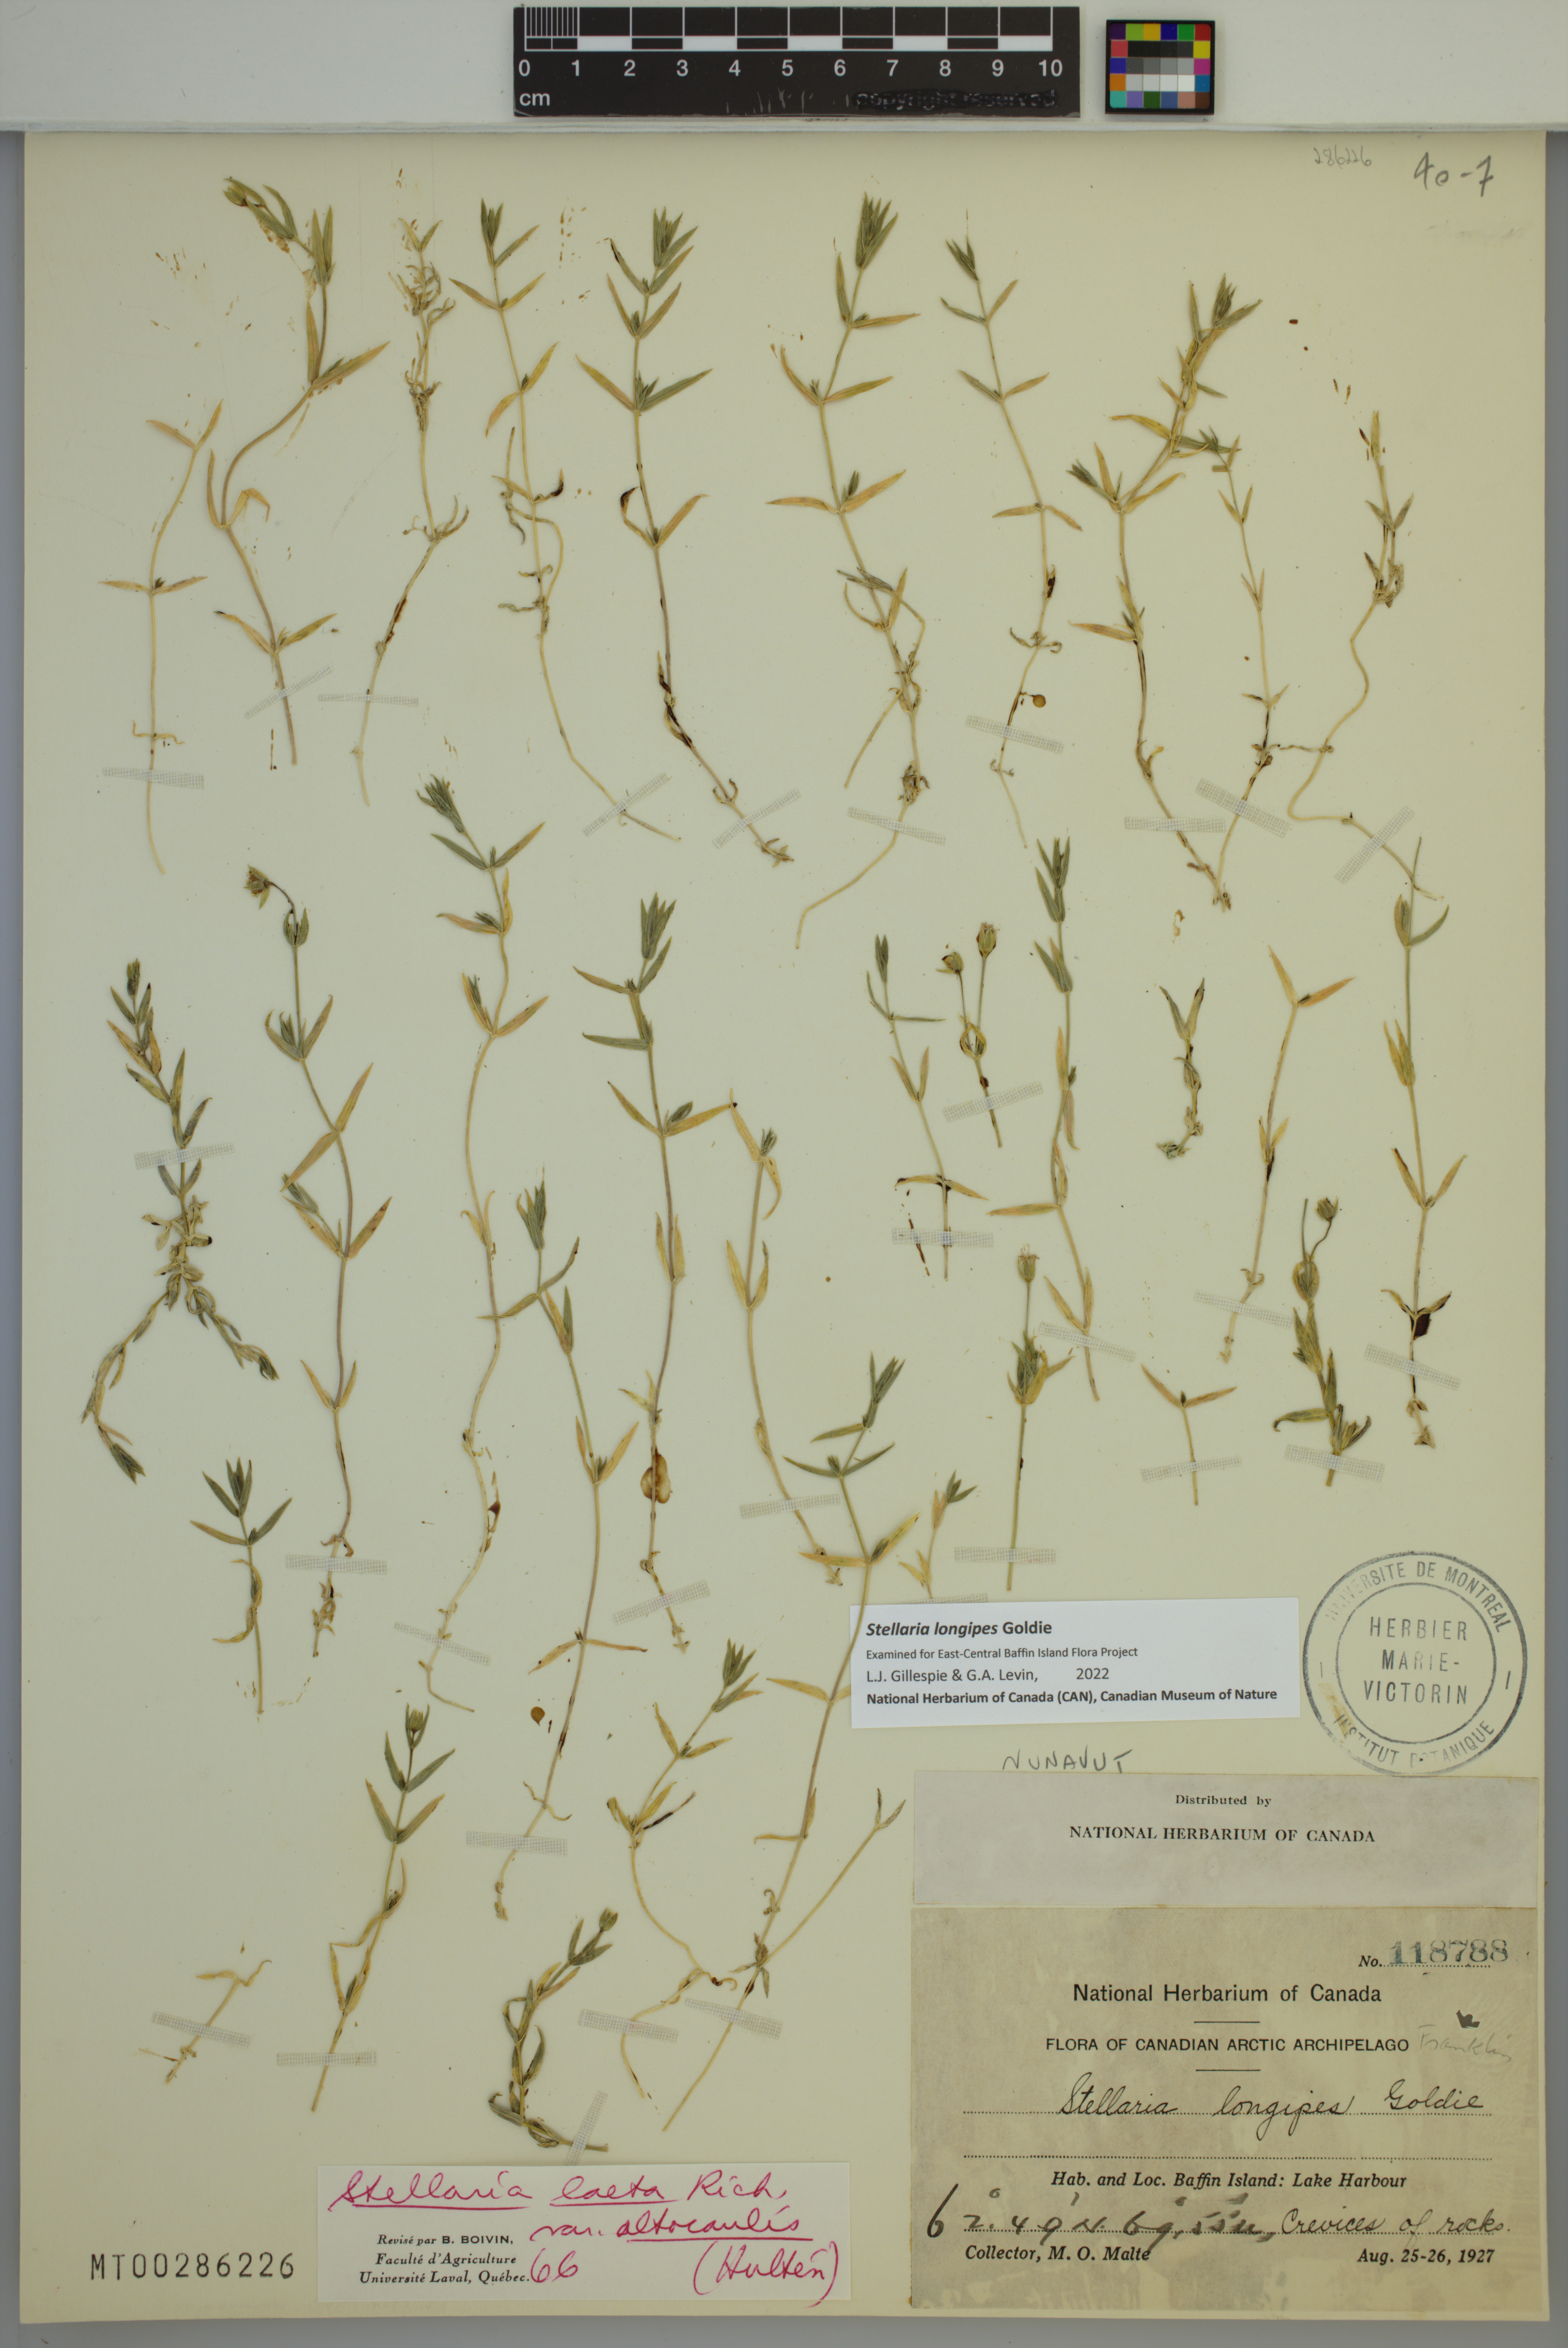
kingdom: Plantae
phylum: Tracheophyta
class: Magnoliopsida
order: Caryophyllales
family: Caryophyllaceae
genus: Stellaria
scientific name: Stellaria longipes
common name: Goldie's starwort
